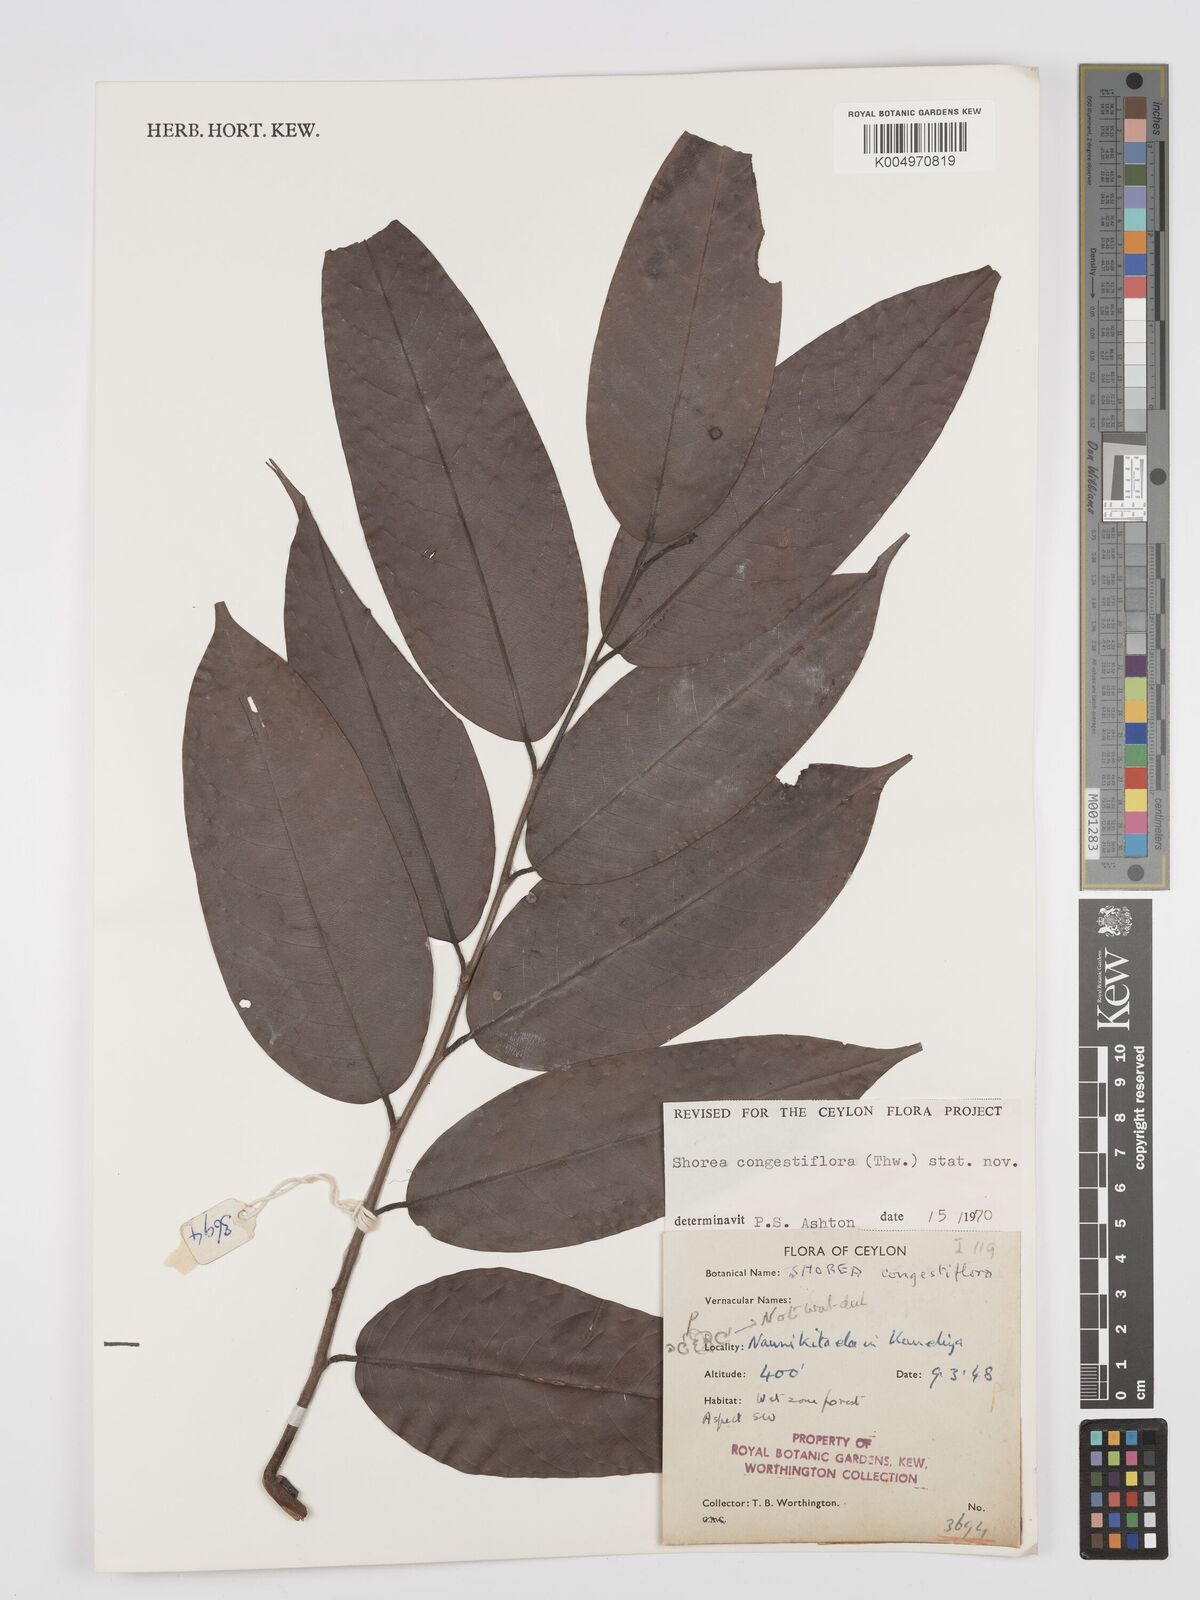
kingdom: Plantae
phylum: Tracheophyta
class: Magnoliopsida
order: Malvales
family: Dipterocarpaceae
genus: Doona
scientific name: Doona congestiflora
